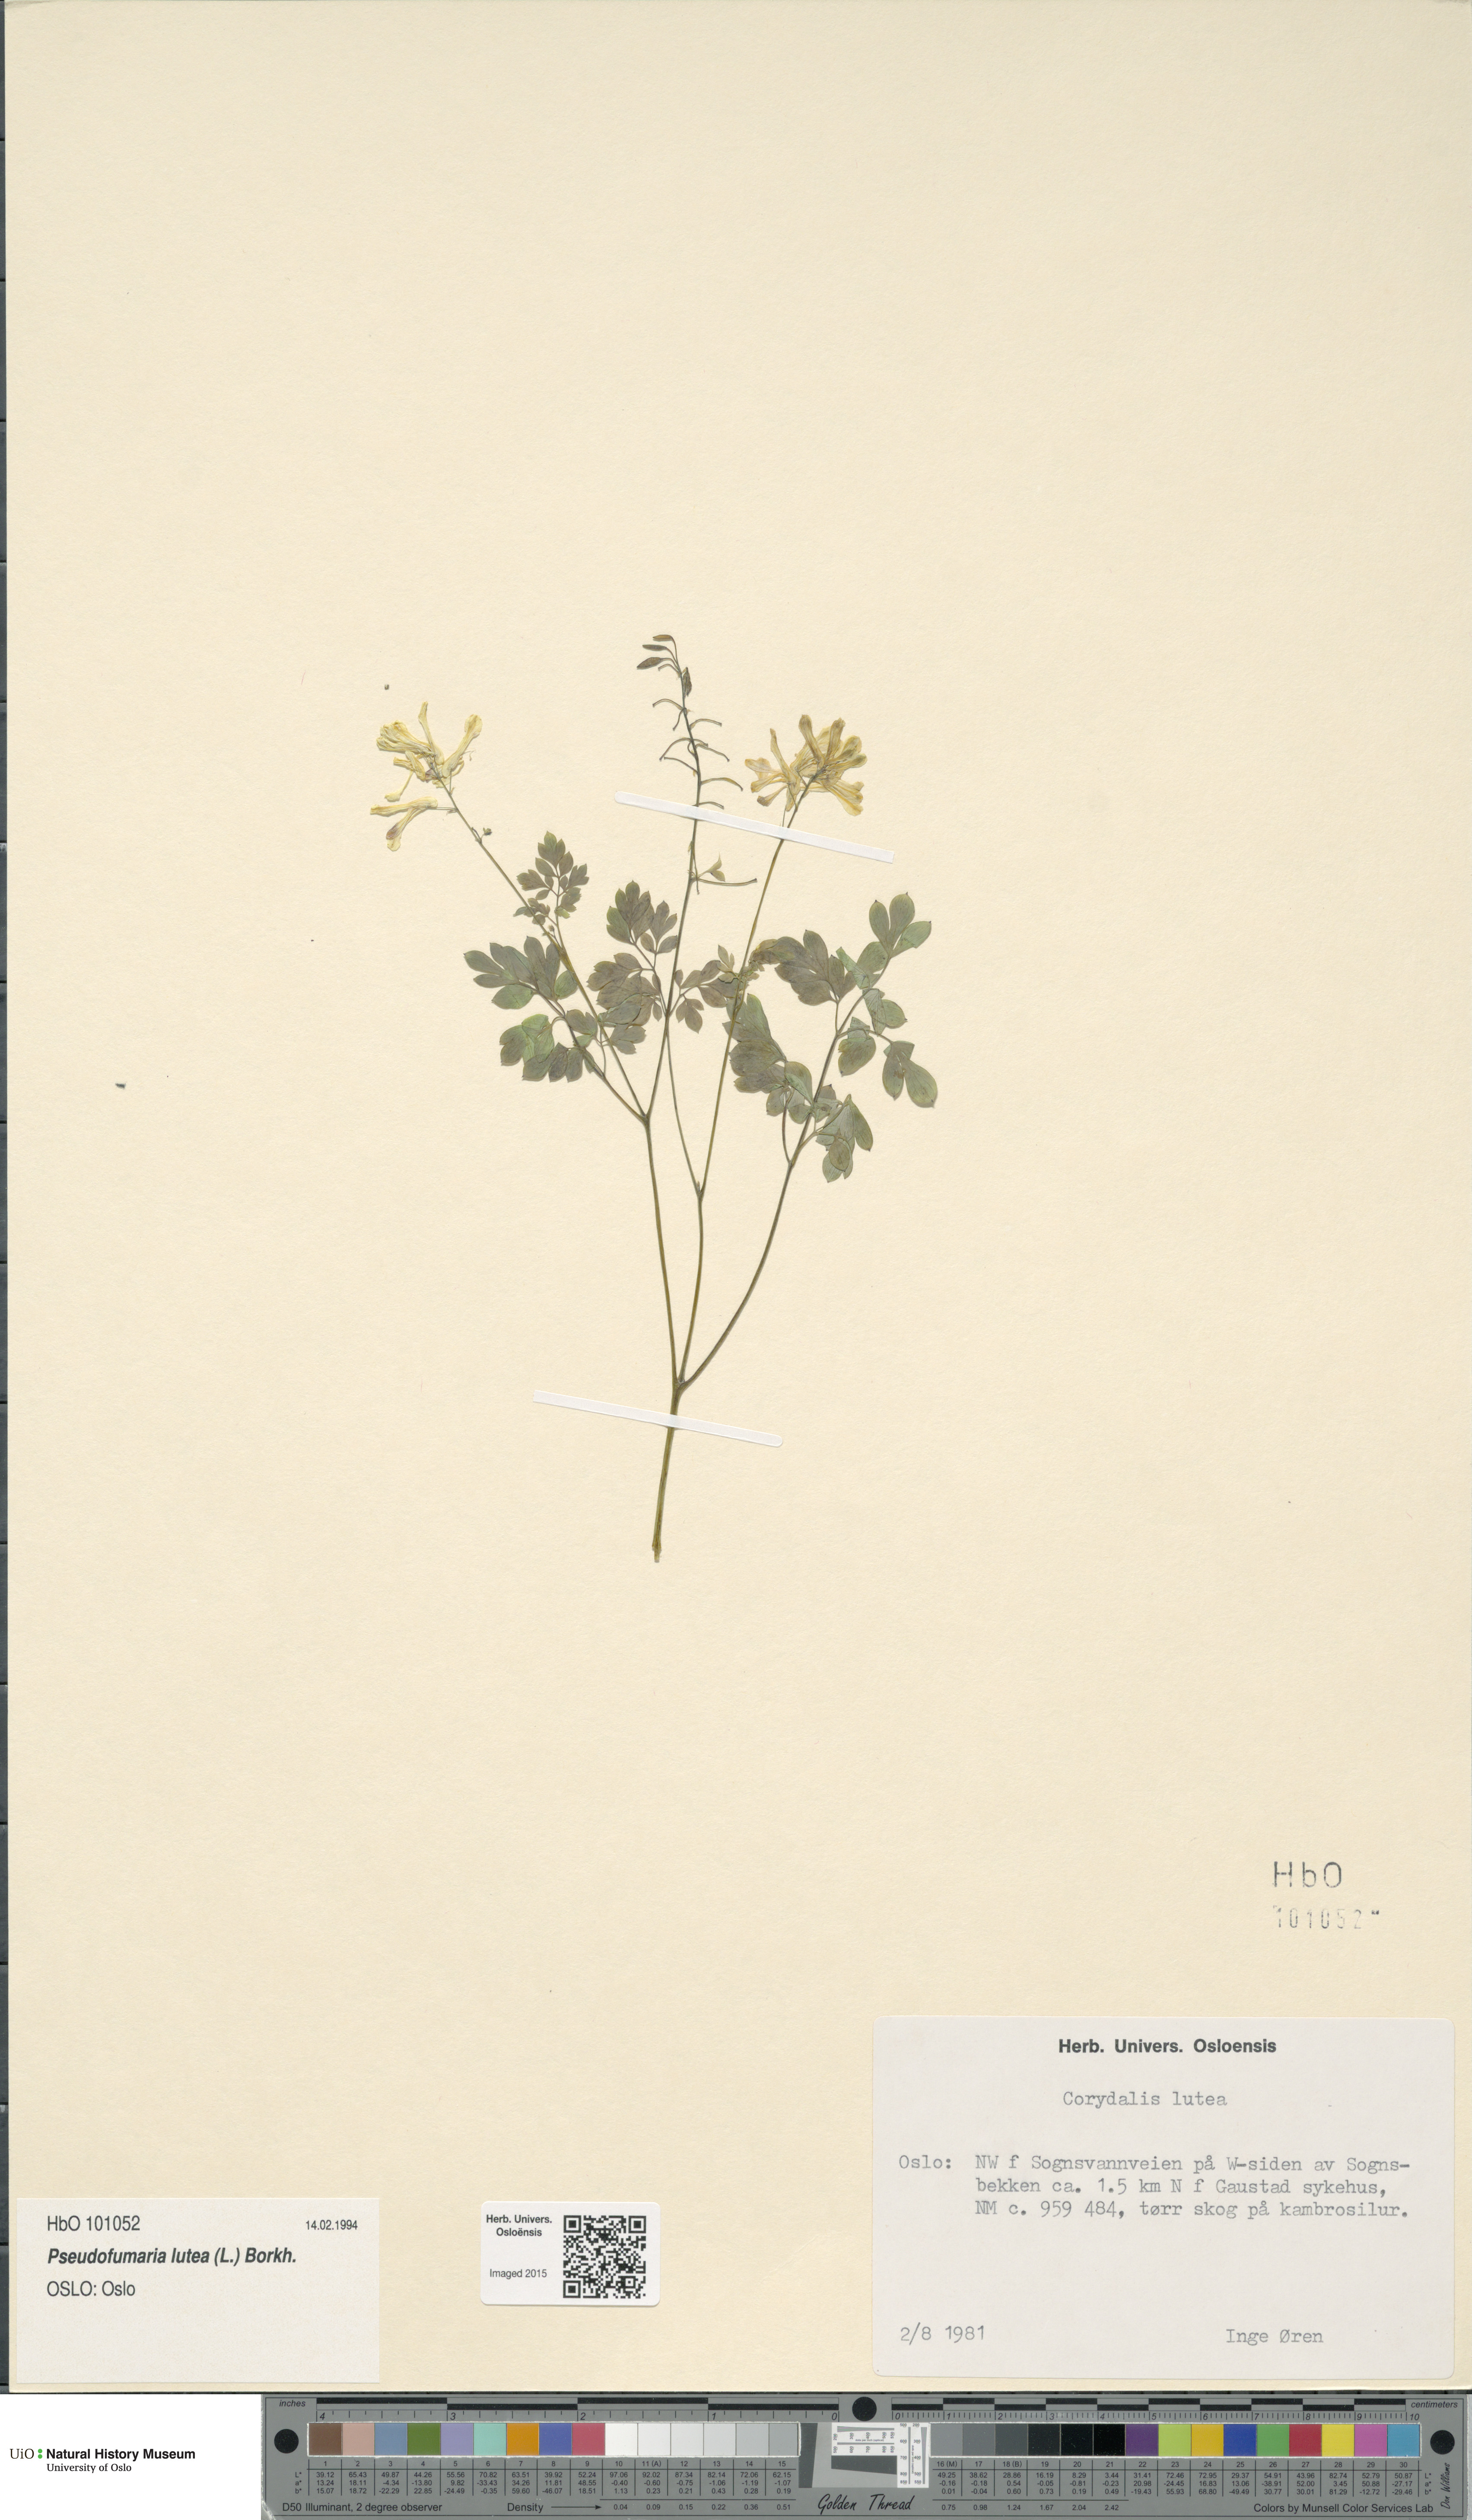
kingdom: Plantae
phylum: Tracheophyta
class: Magnoliopsida
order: Ranunculales
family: Papaveraceae
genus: Pseudofumaria
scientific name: Pseudofumaria lutea
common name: Yellow corydalis
